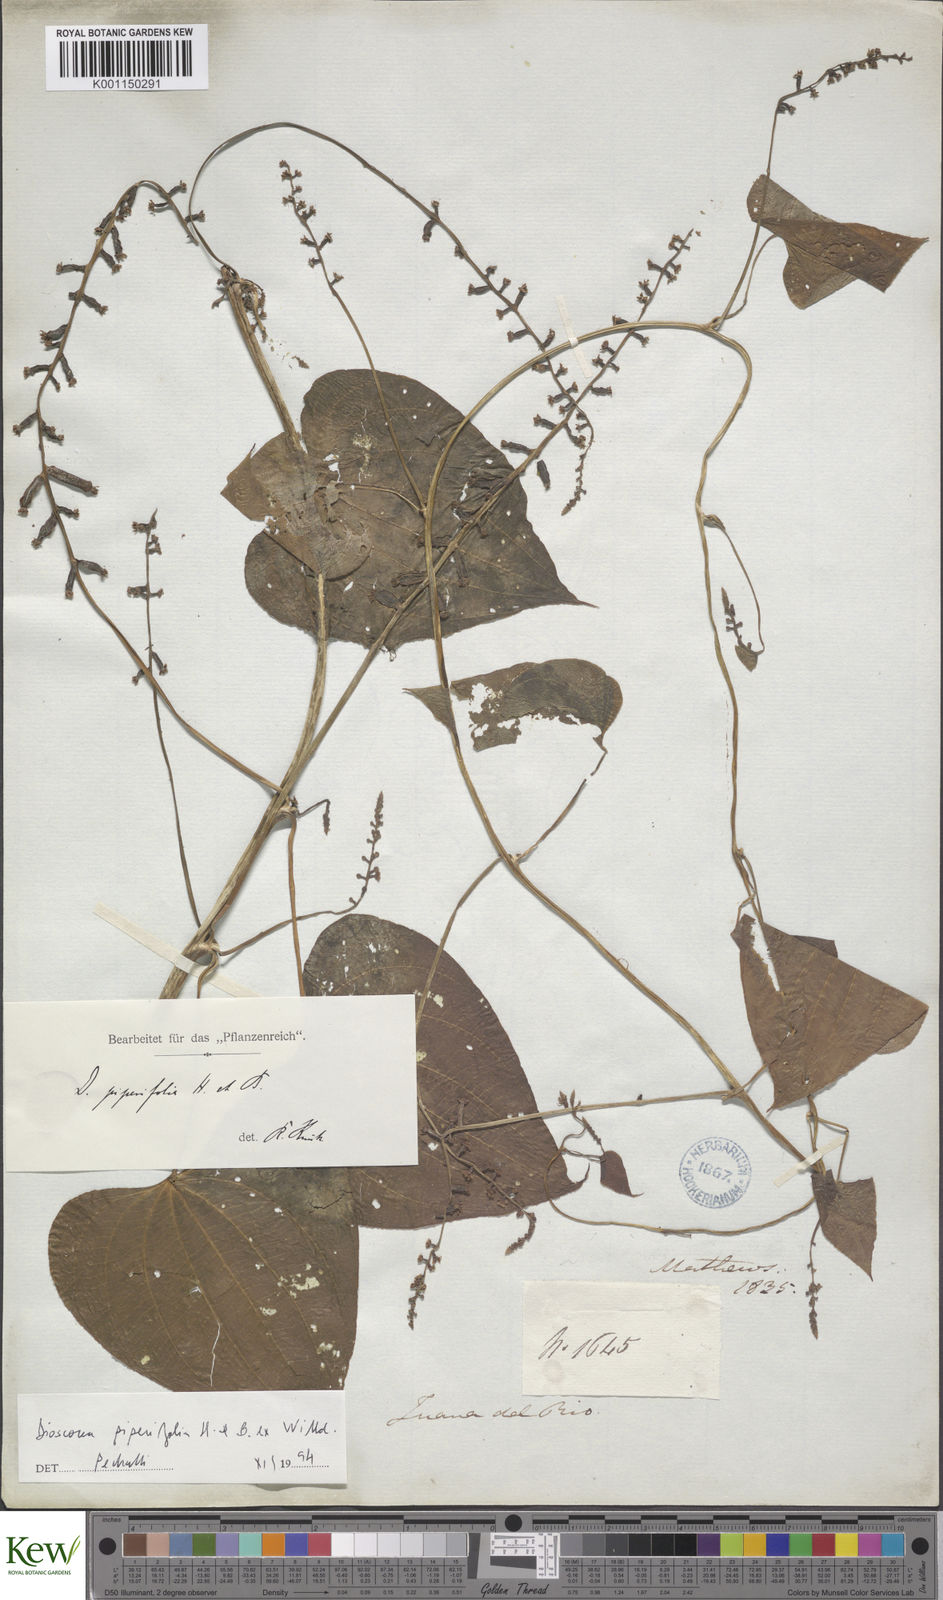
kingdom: Plantae
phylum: Tracheophyta
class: Liliopsida
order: Dioscoreales
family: Dioscoreaceae
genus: Dioscorea
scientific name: Dioscorea piperifolia
